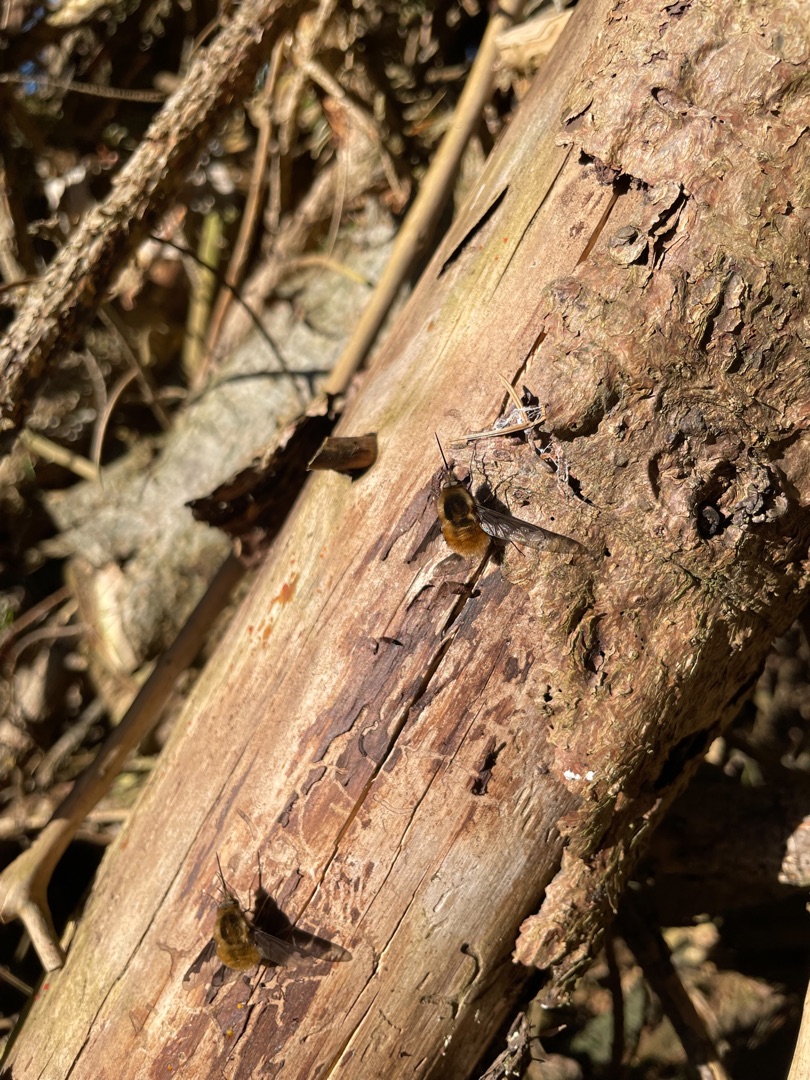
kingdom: Animalia
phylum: Arthropoda
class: Insecta
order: Diptera
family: Bombyliidae
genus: Bombylius
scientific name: Bombylius major
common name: Stor humleflue
